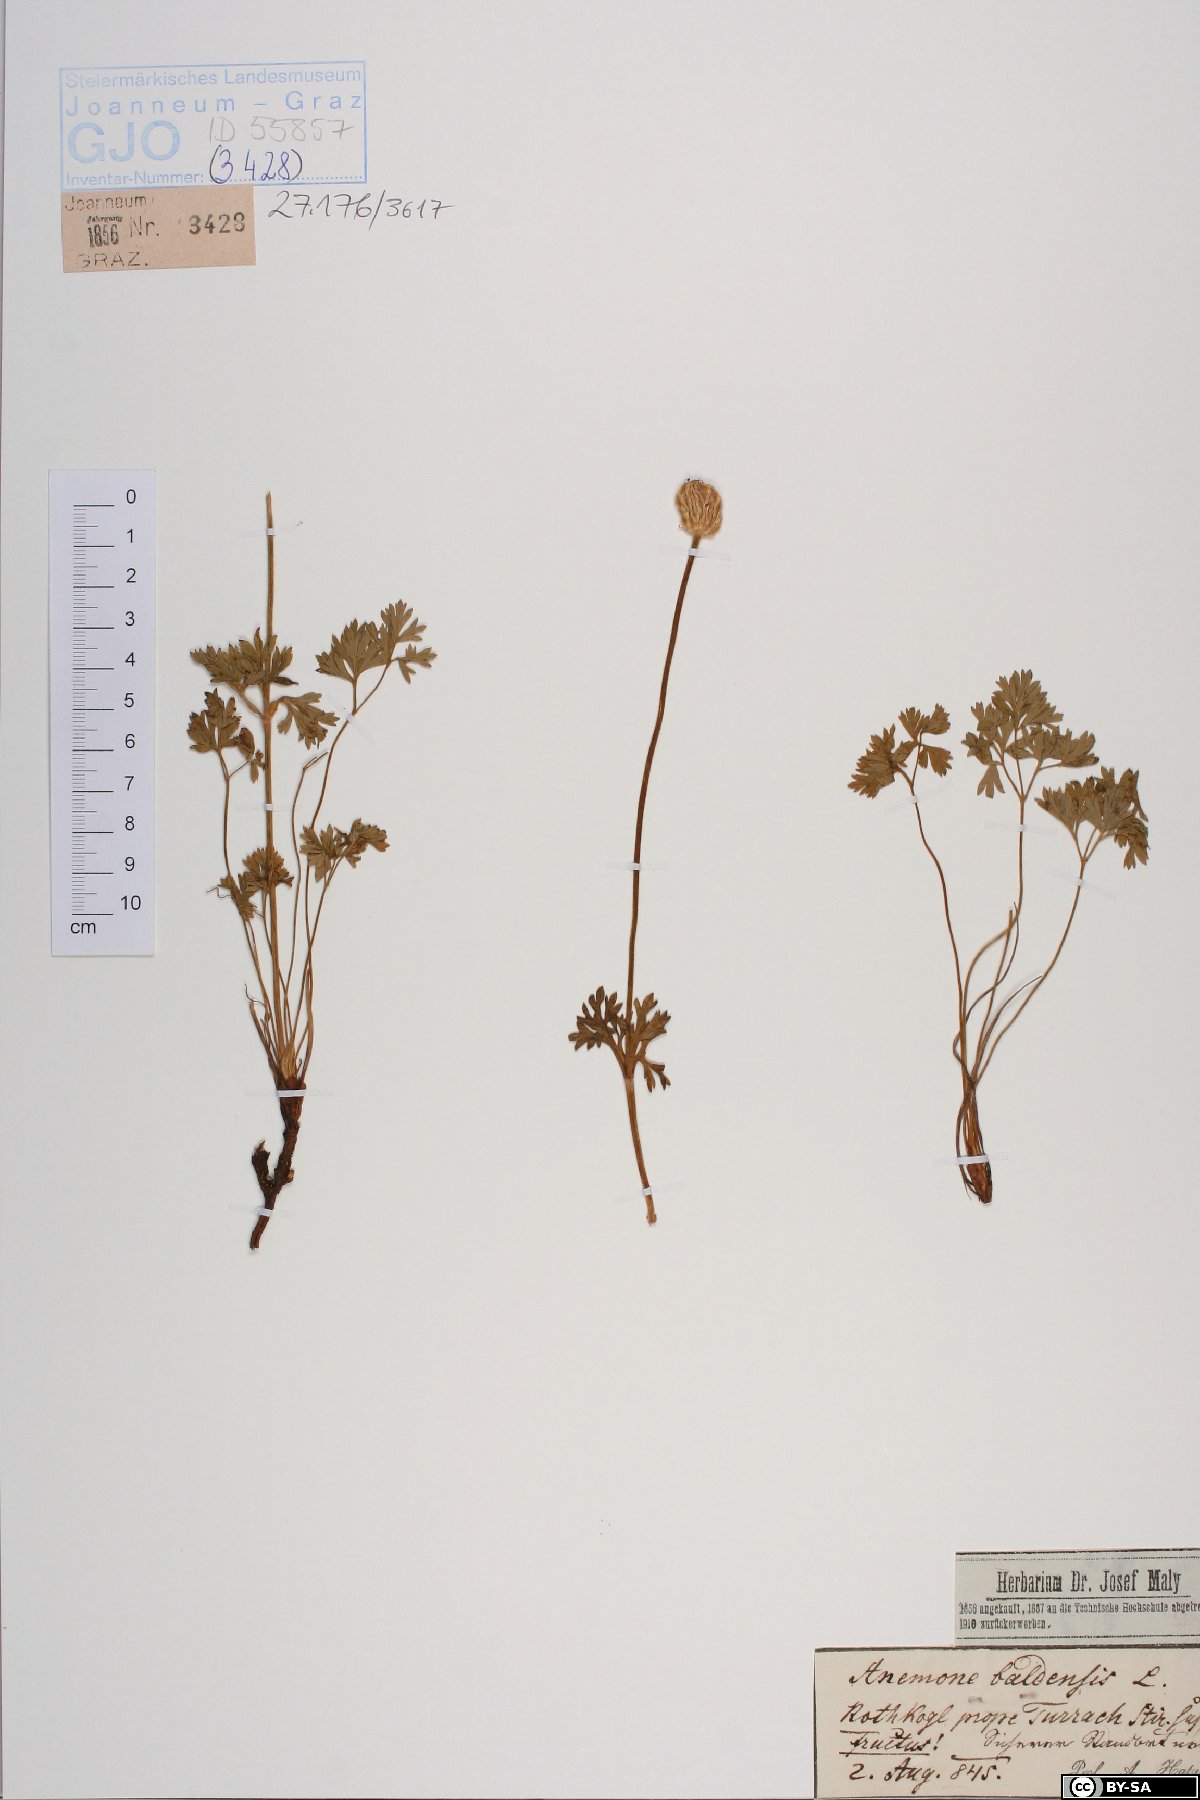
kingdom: Plantae
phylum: Tracheophyta
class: Magnoliopsida
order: Ranunculales
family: Ranunculaceae
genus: Anemone
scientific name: Anemone baldensis
